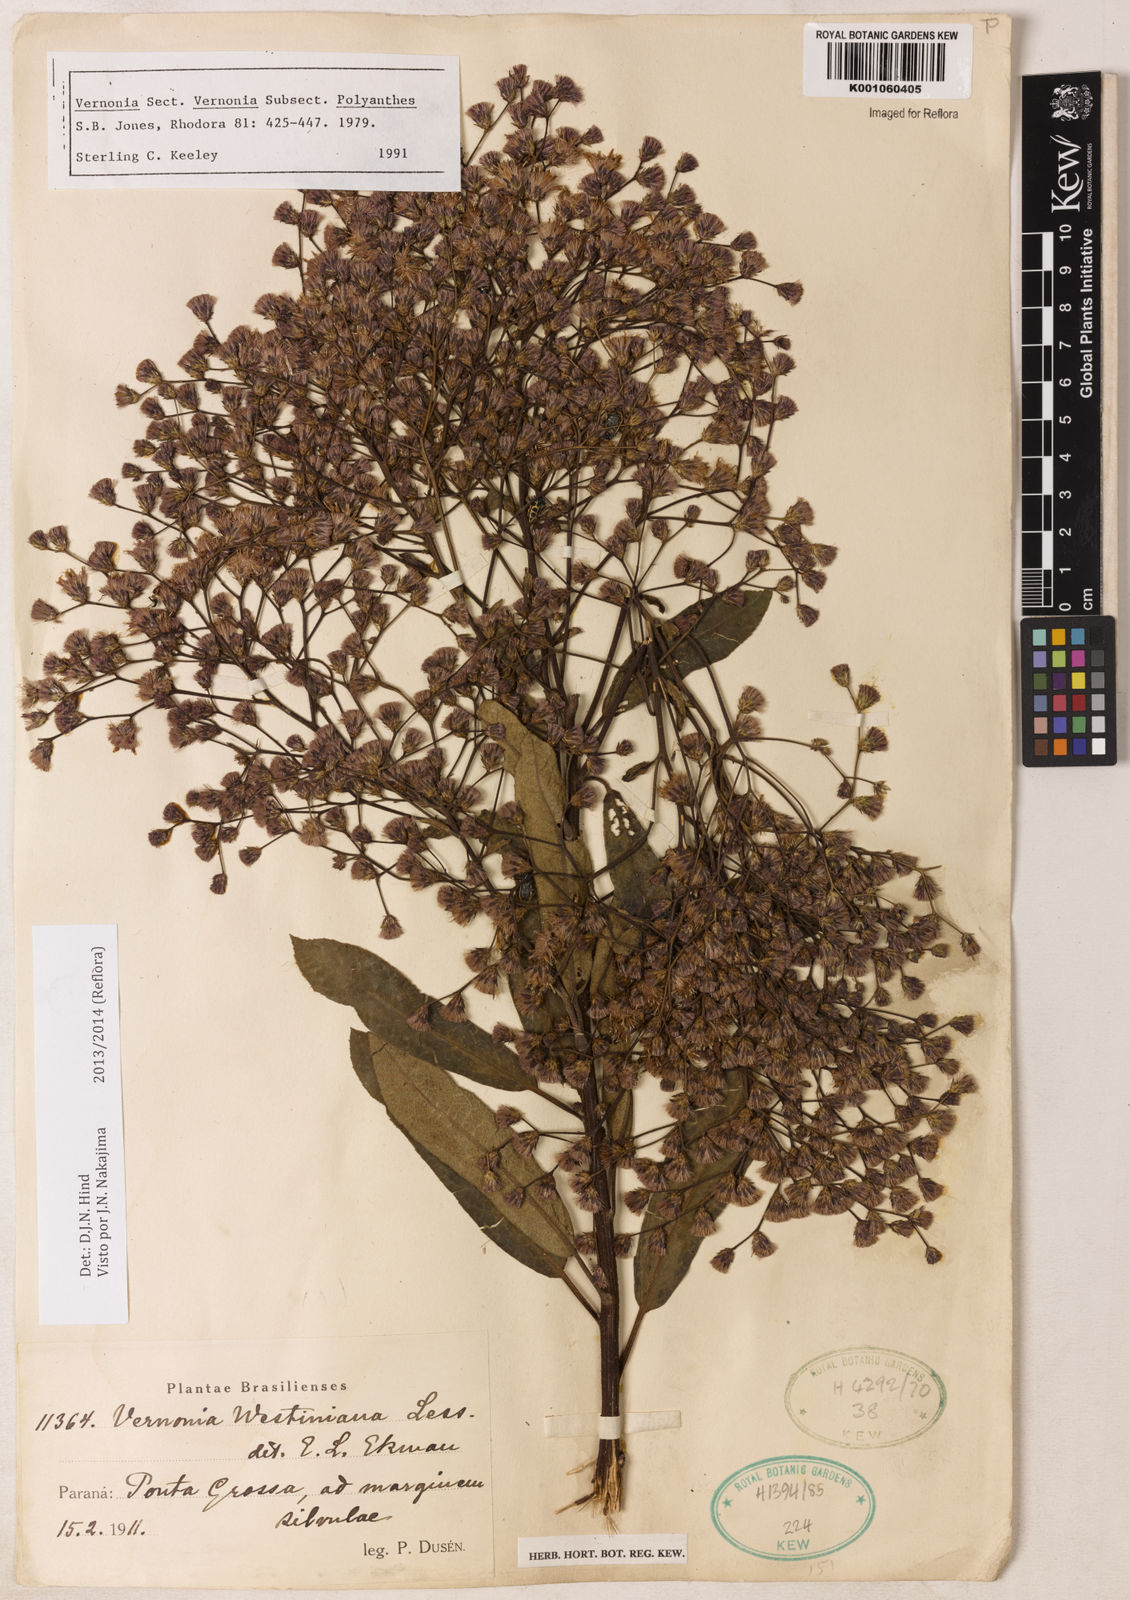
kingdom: Plantae
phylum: Tracheophyta
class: Magnoliopsida
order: Asterales
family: Asteraceae
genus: Vernonanthura
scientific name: Vernonanthura westiniana
